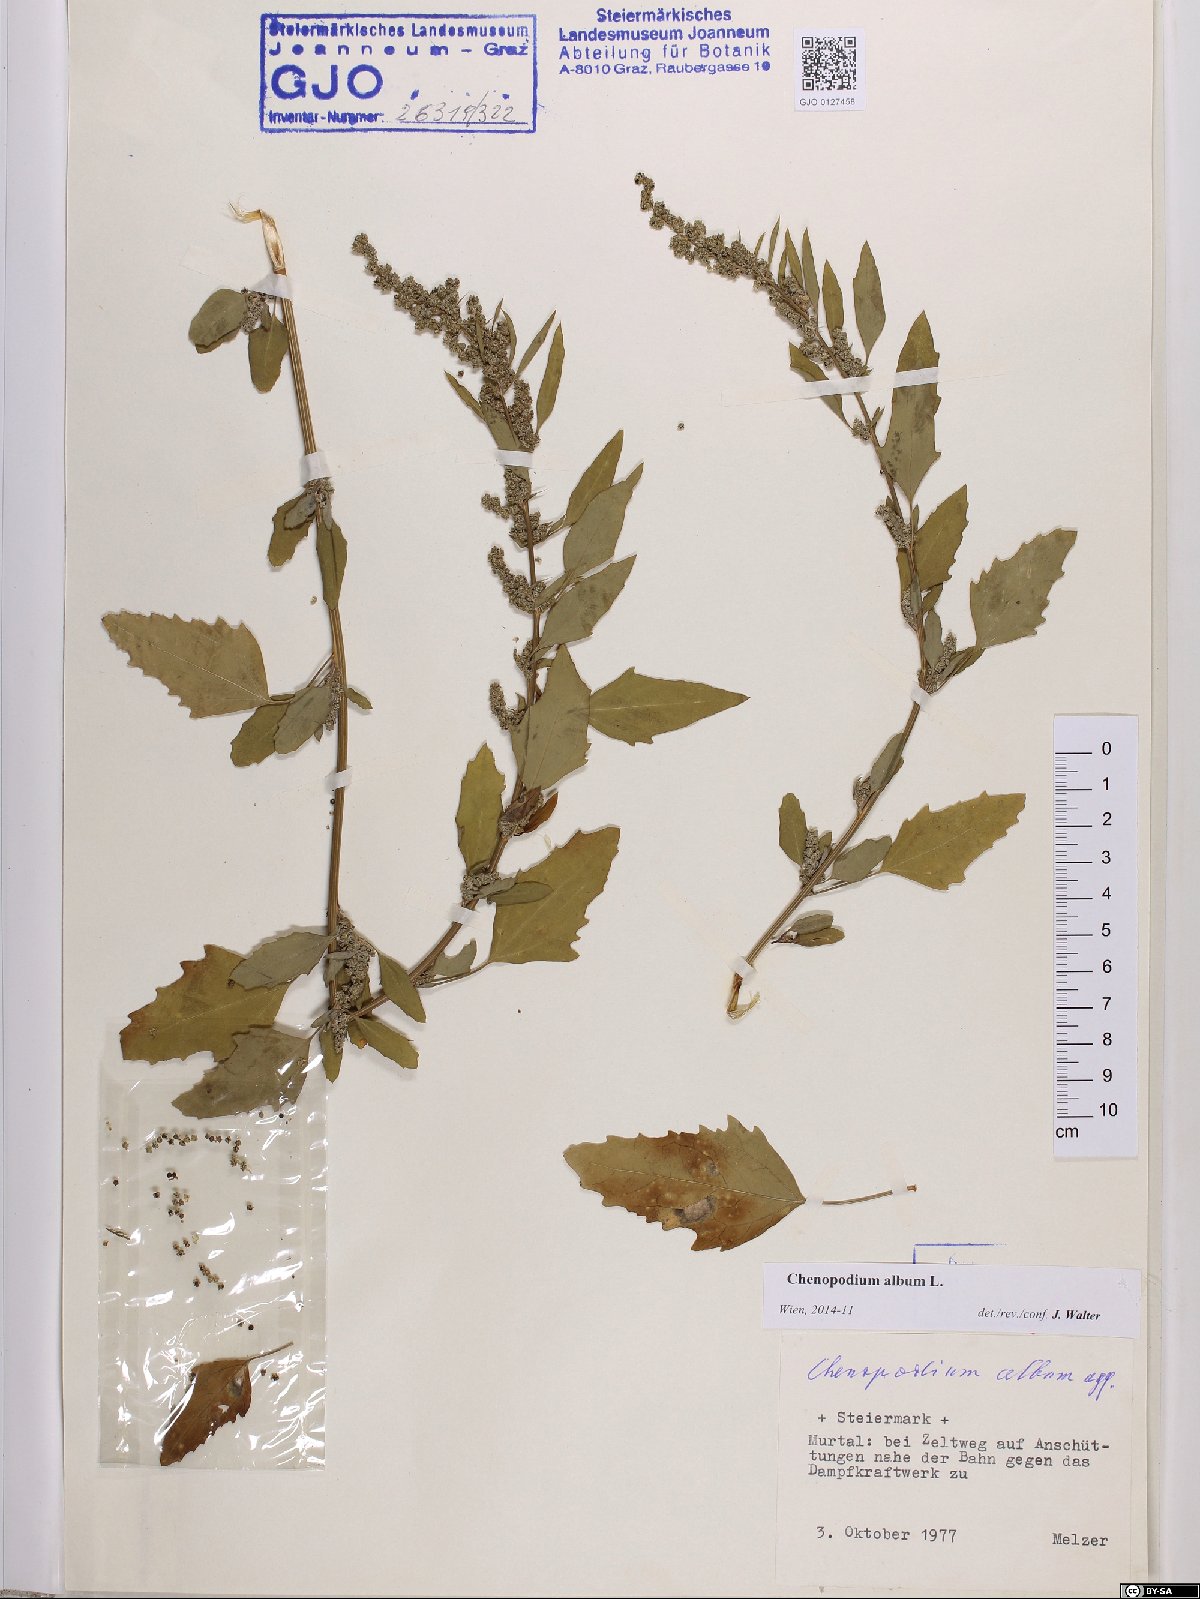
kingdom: Plantae
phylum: Tracheophyta
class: Magnoliopsida
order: Caryophyllales
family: Amaranthaceae
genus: Chenopodium
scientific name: Chenopodium album
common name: Fat-hen
